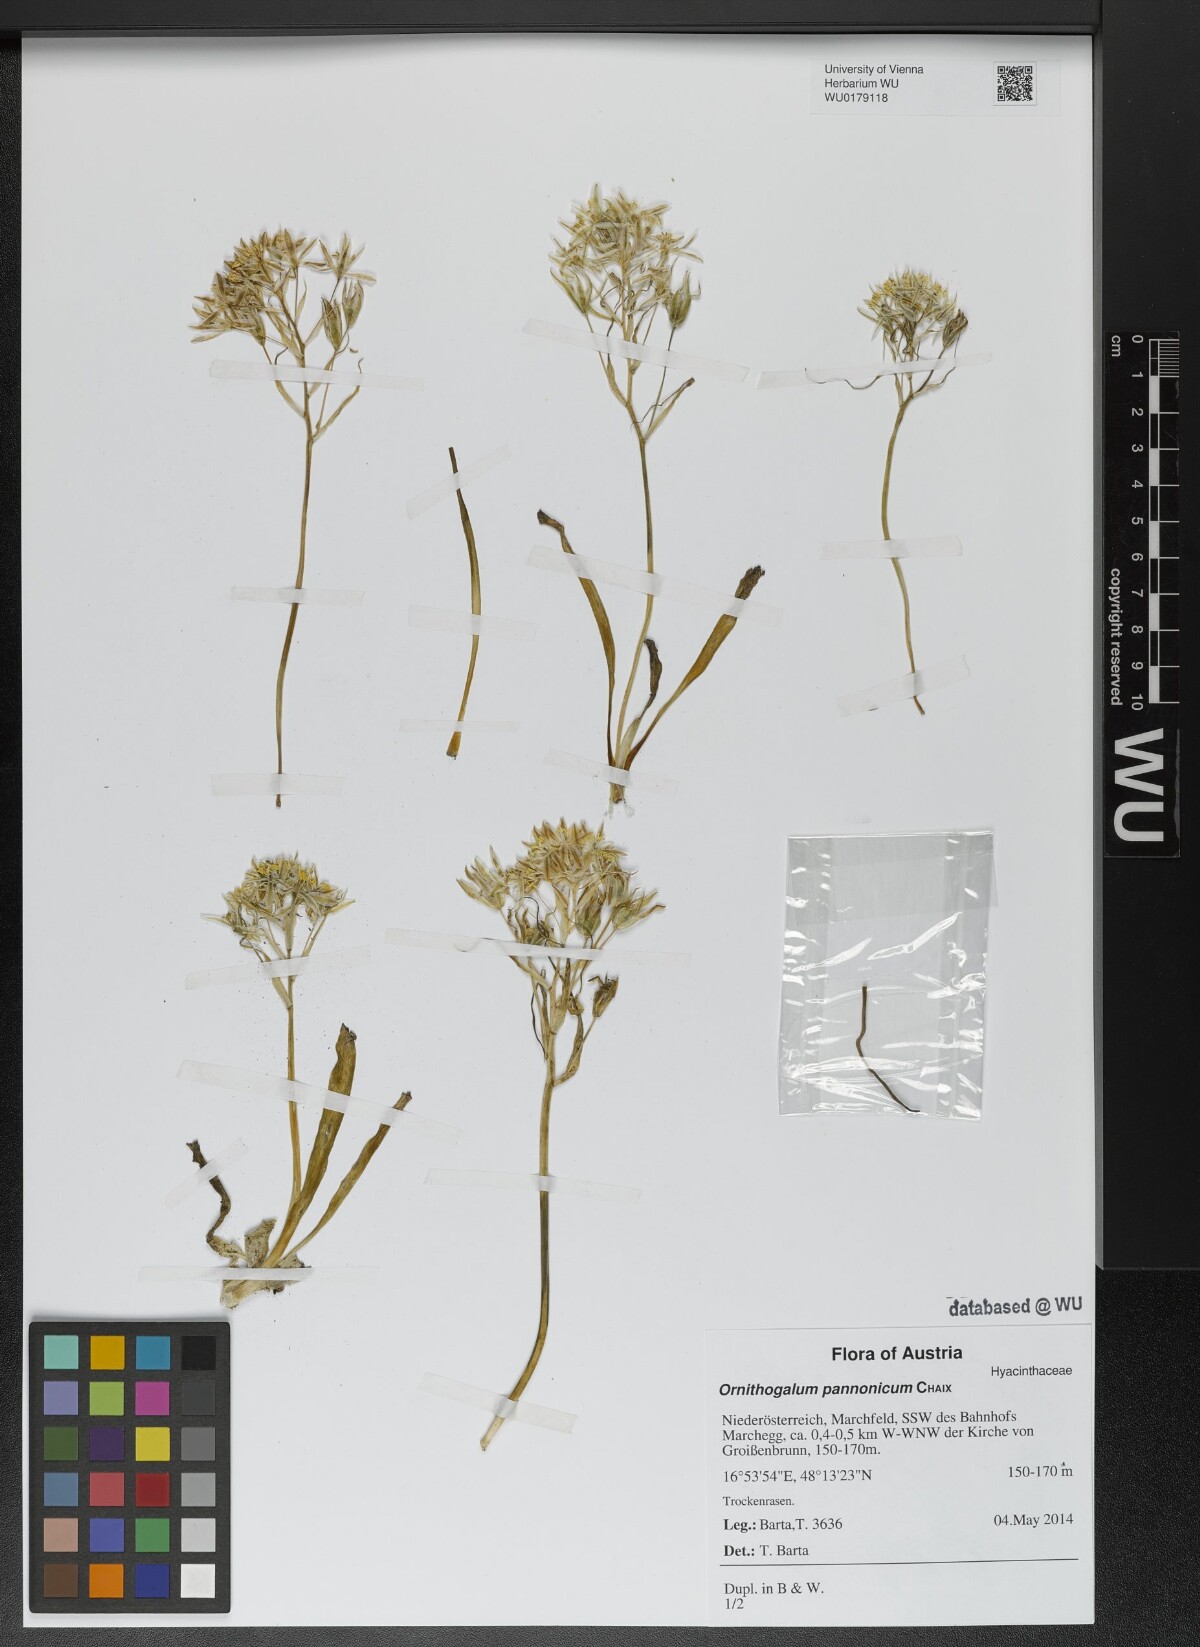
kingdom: Plantae
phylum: Tracheophyta
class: Liliopsida
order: Asparagales
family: Asparagaceae
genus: Ornithogalum
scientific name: Ornithogalum comosum
